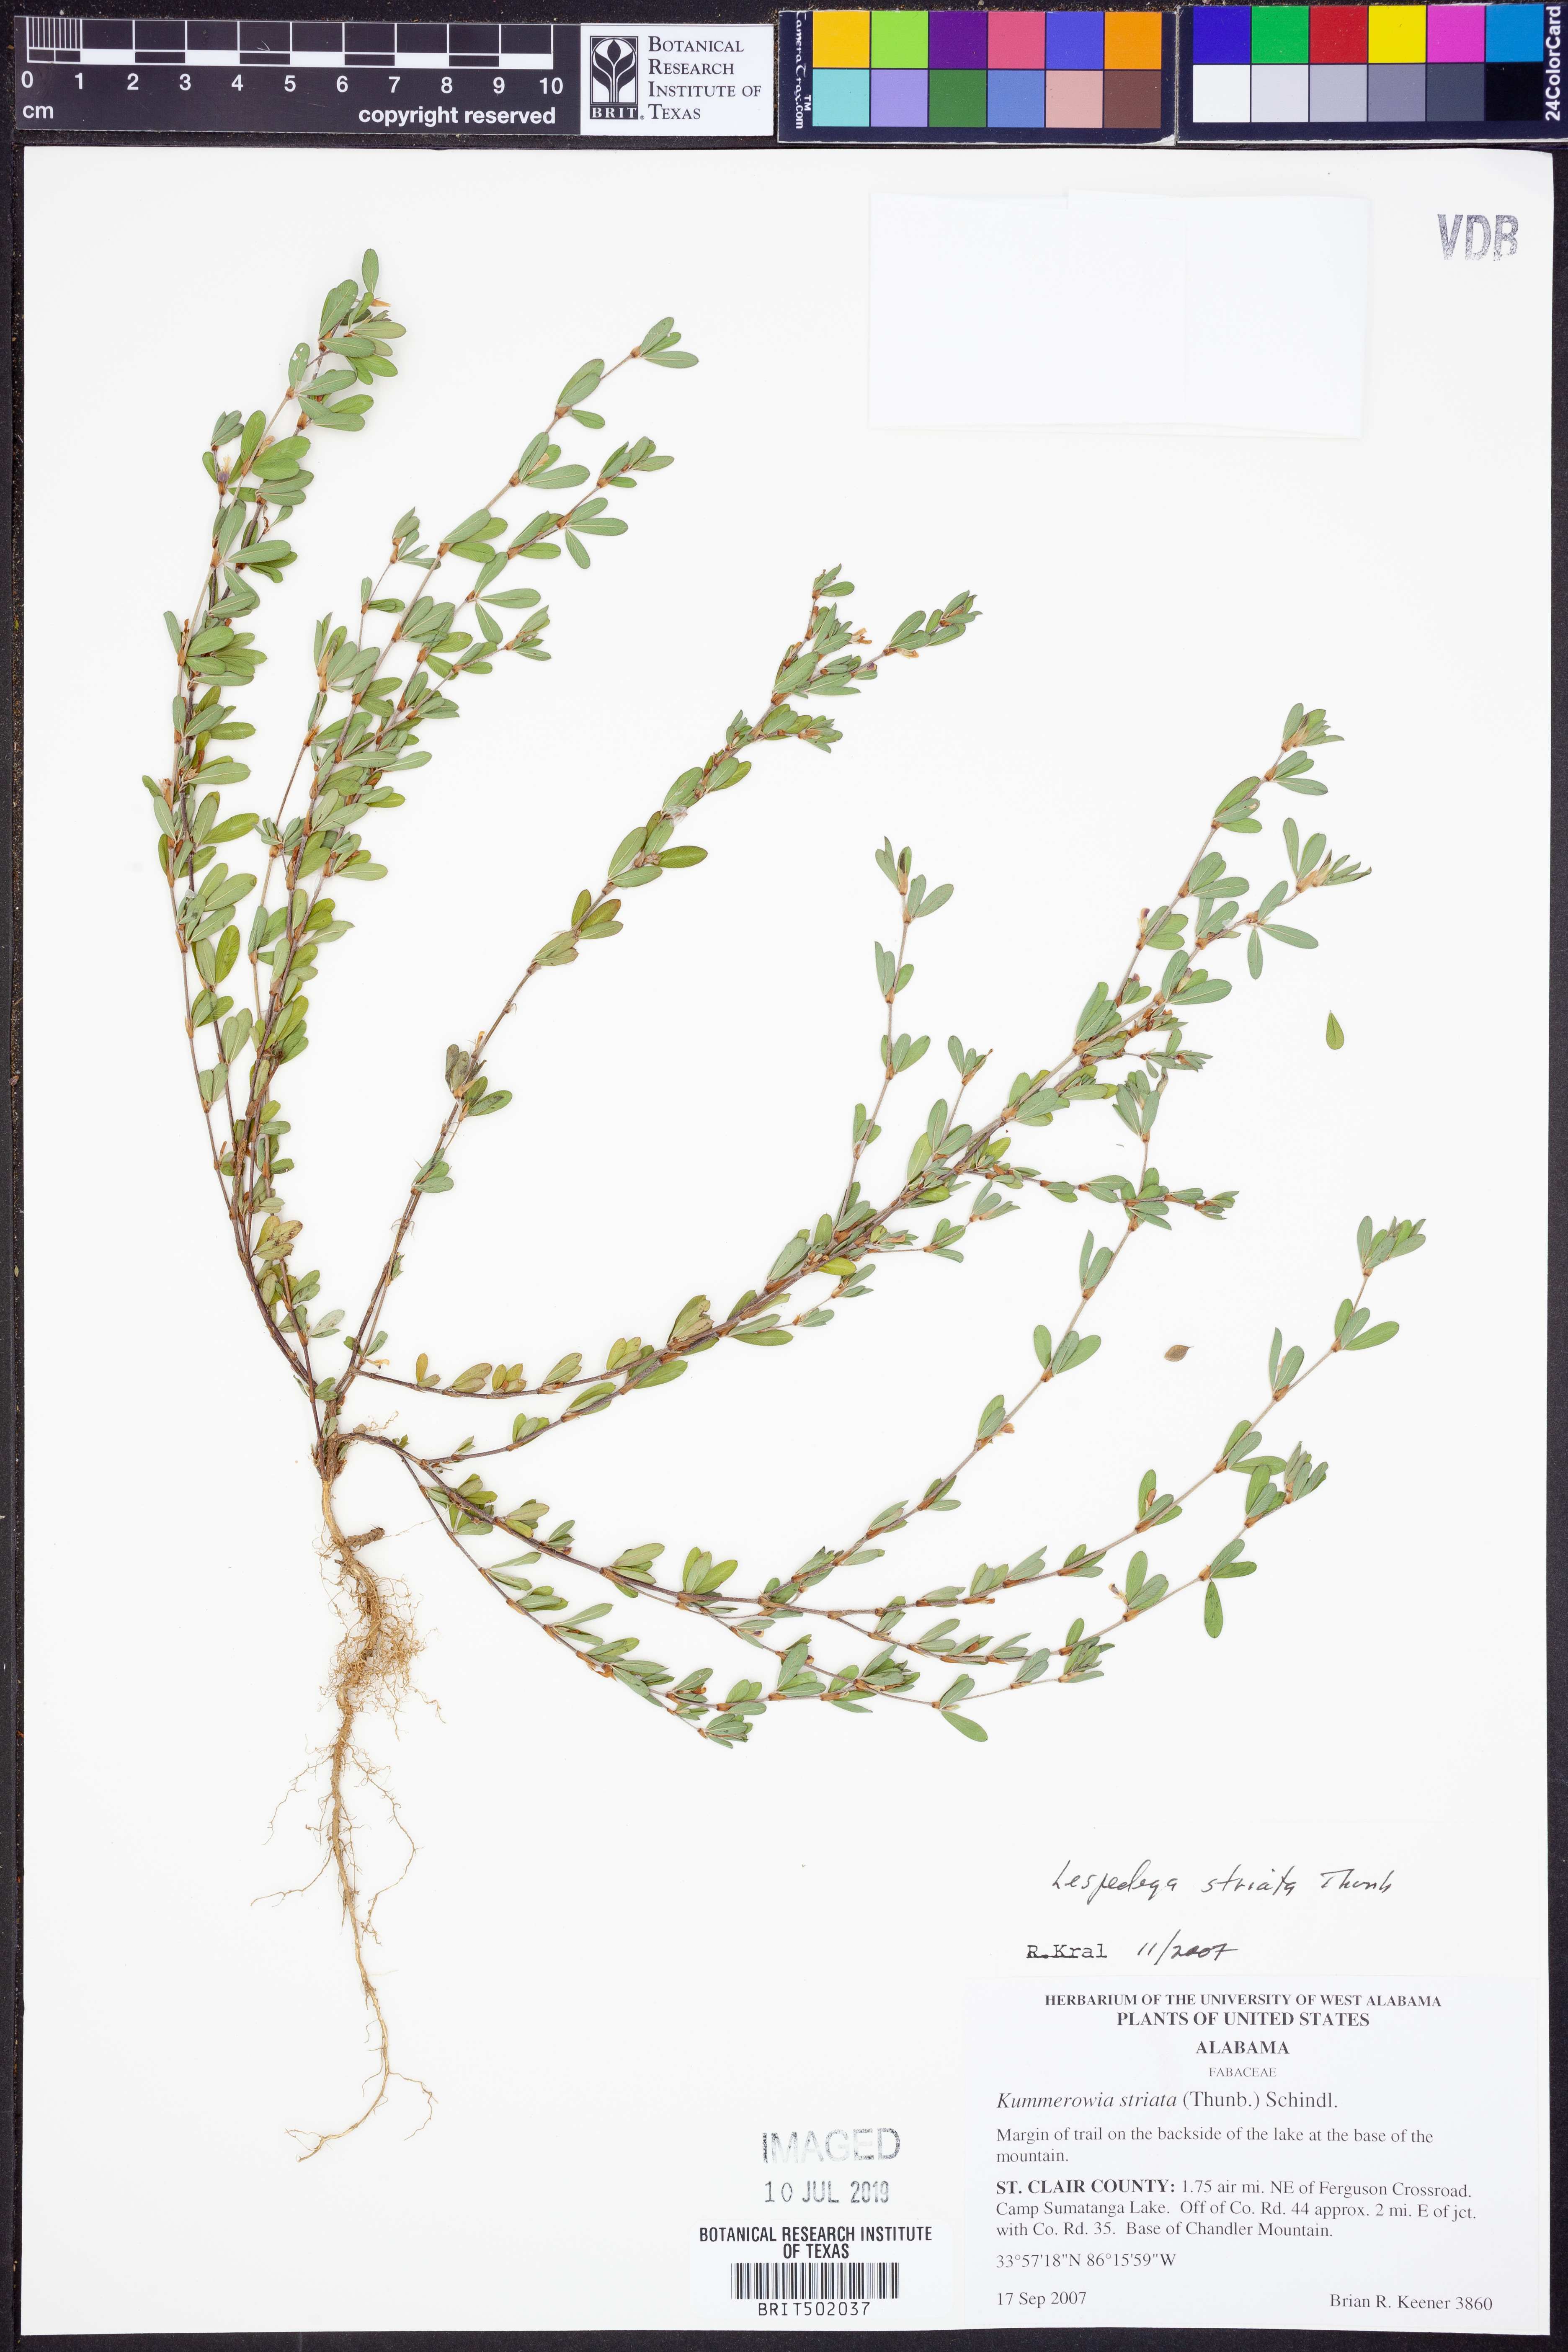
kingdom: Plantae
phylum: Tracheophyta
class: Magnoliopsida
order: Fabales
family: Fabaceae
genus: Kummerowia
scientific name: Kummerowia striata
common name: Japanese clover
